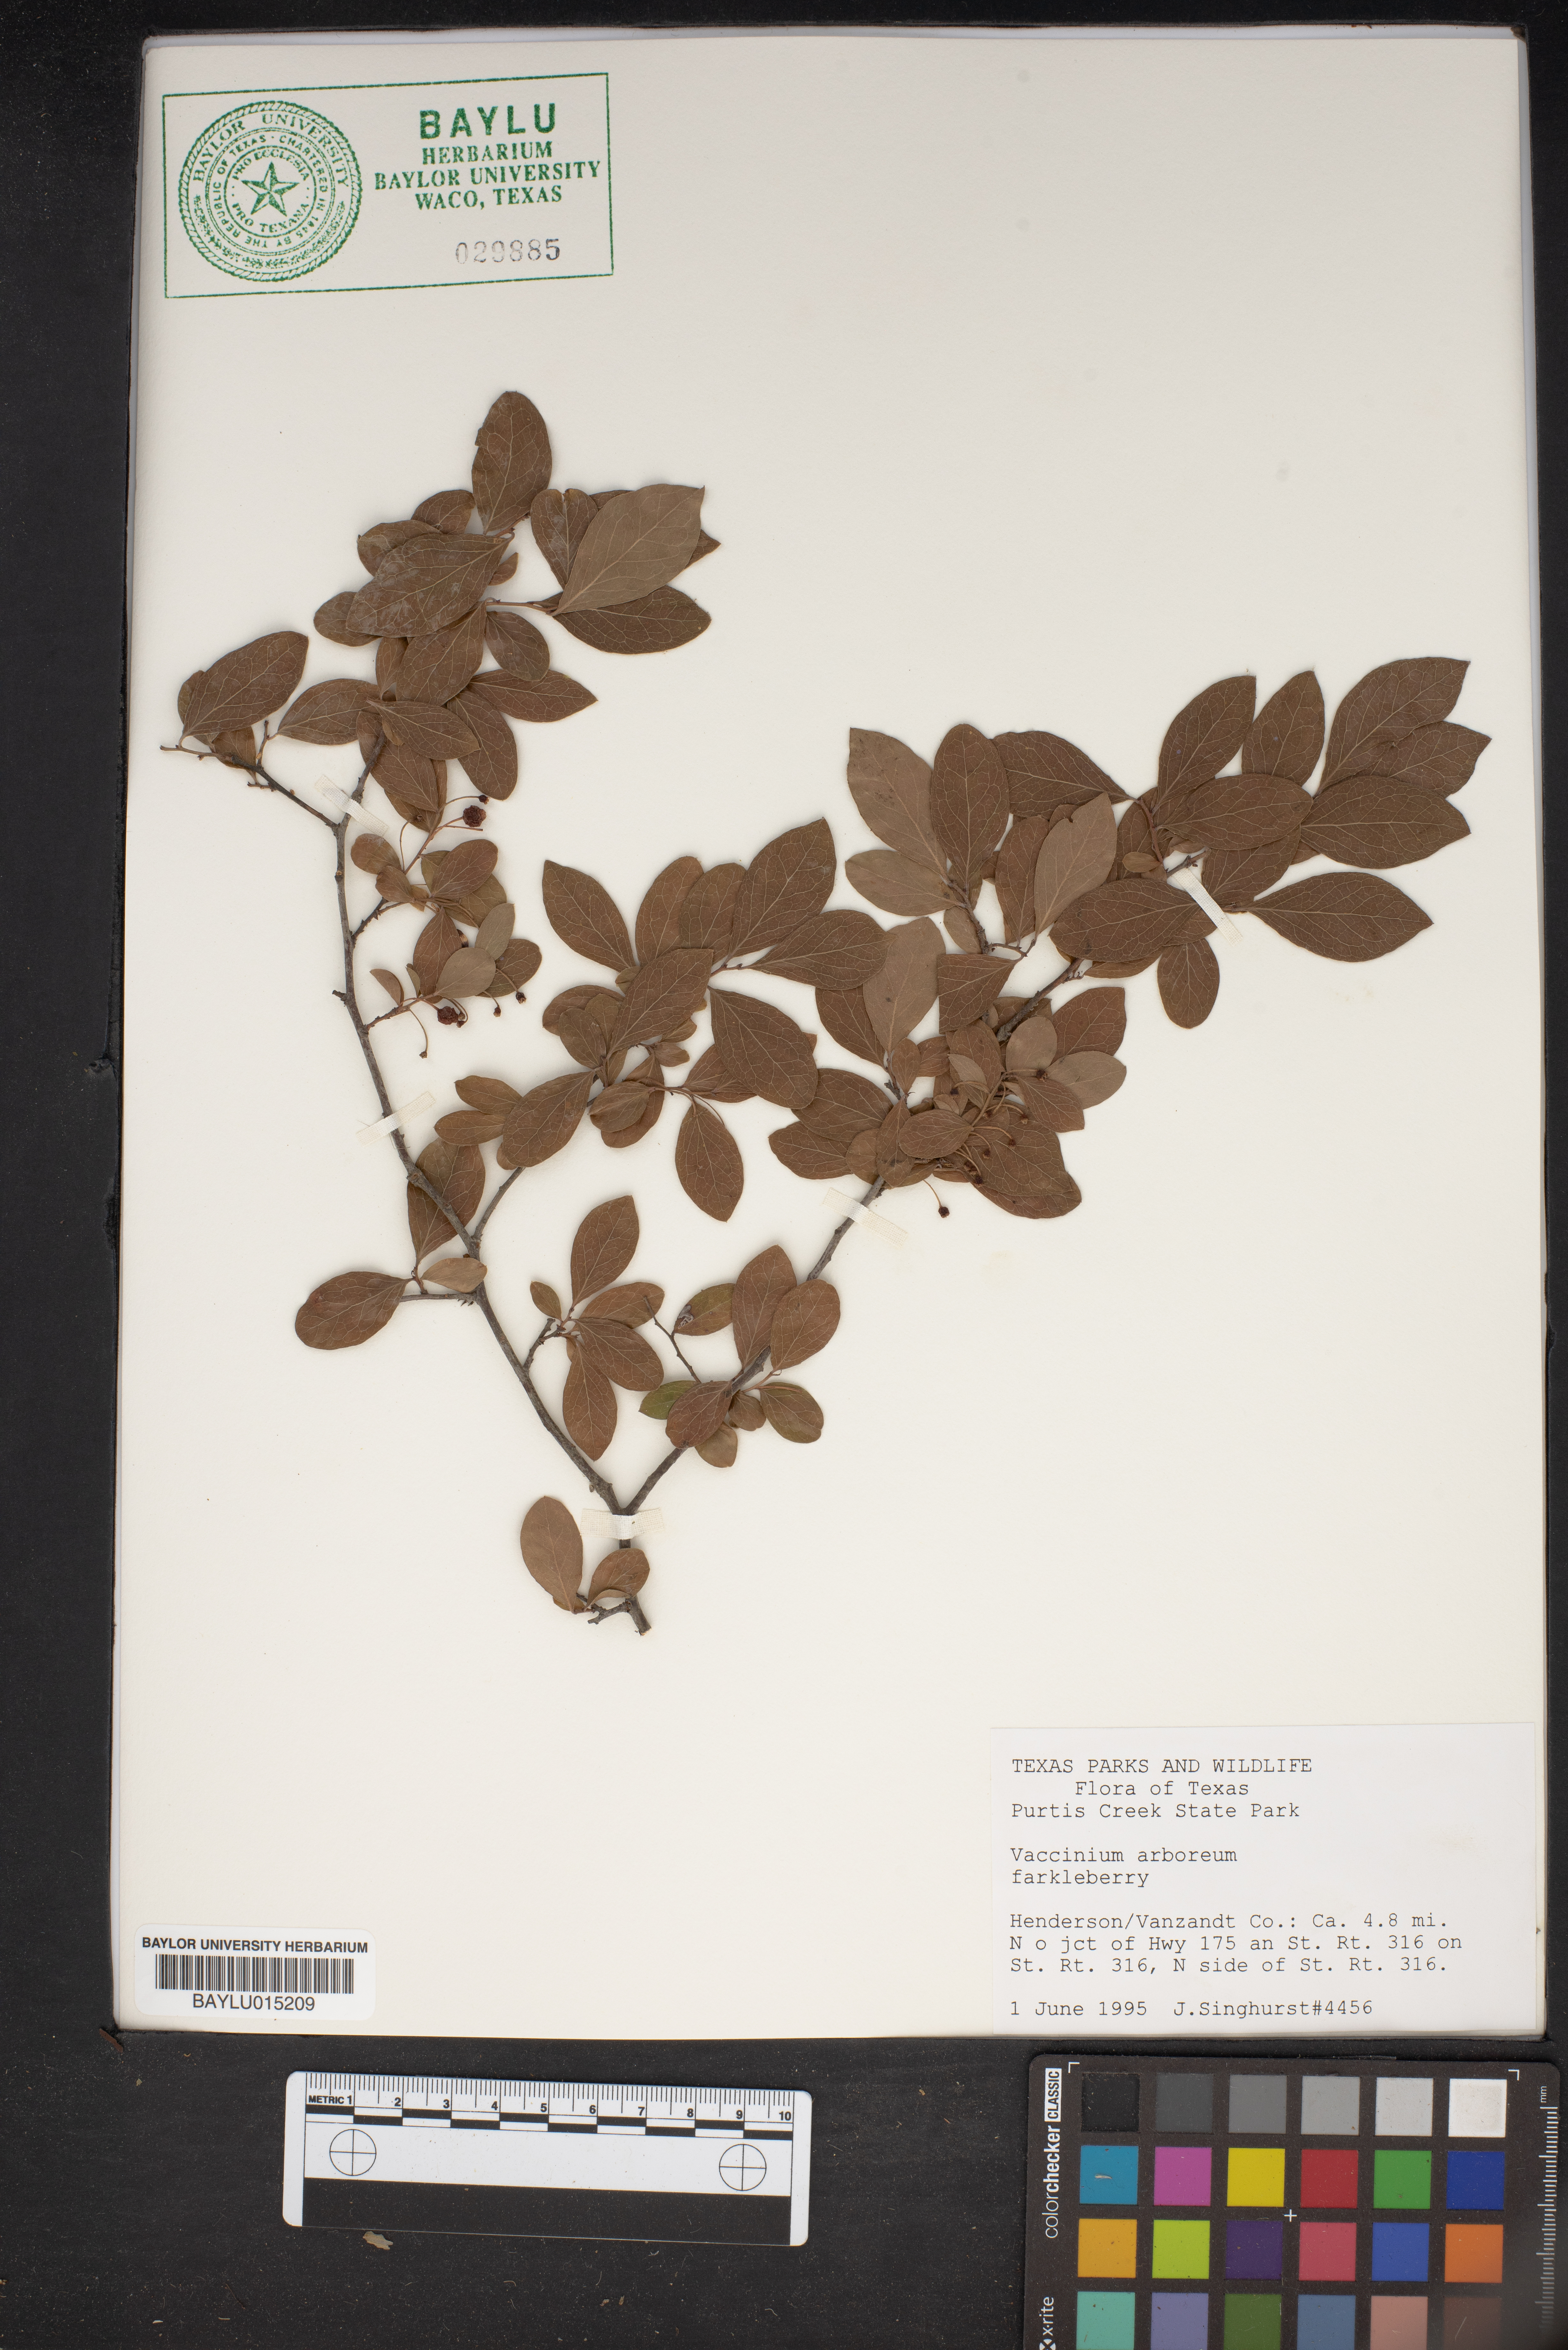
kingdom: Plantae
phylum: Tracheophyta
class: Magnoliopsida
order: Ericales
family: Ericaceae
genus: Vaccinium
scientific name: Vaccinium arboreum
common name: Farkleberry
